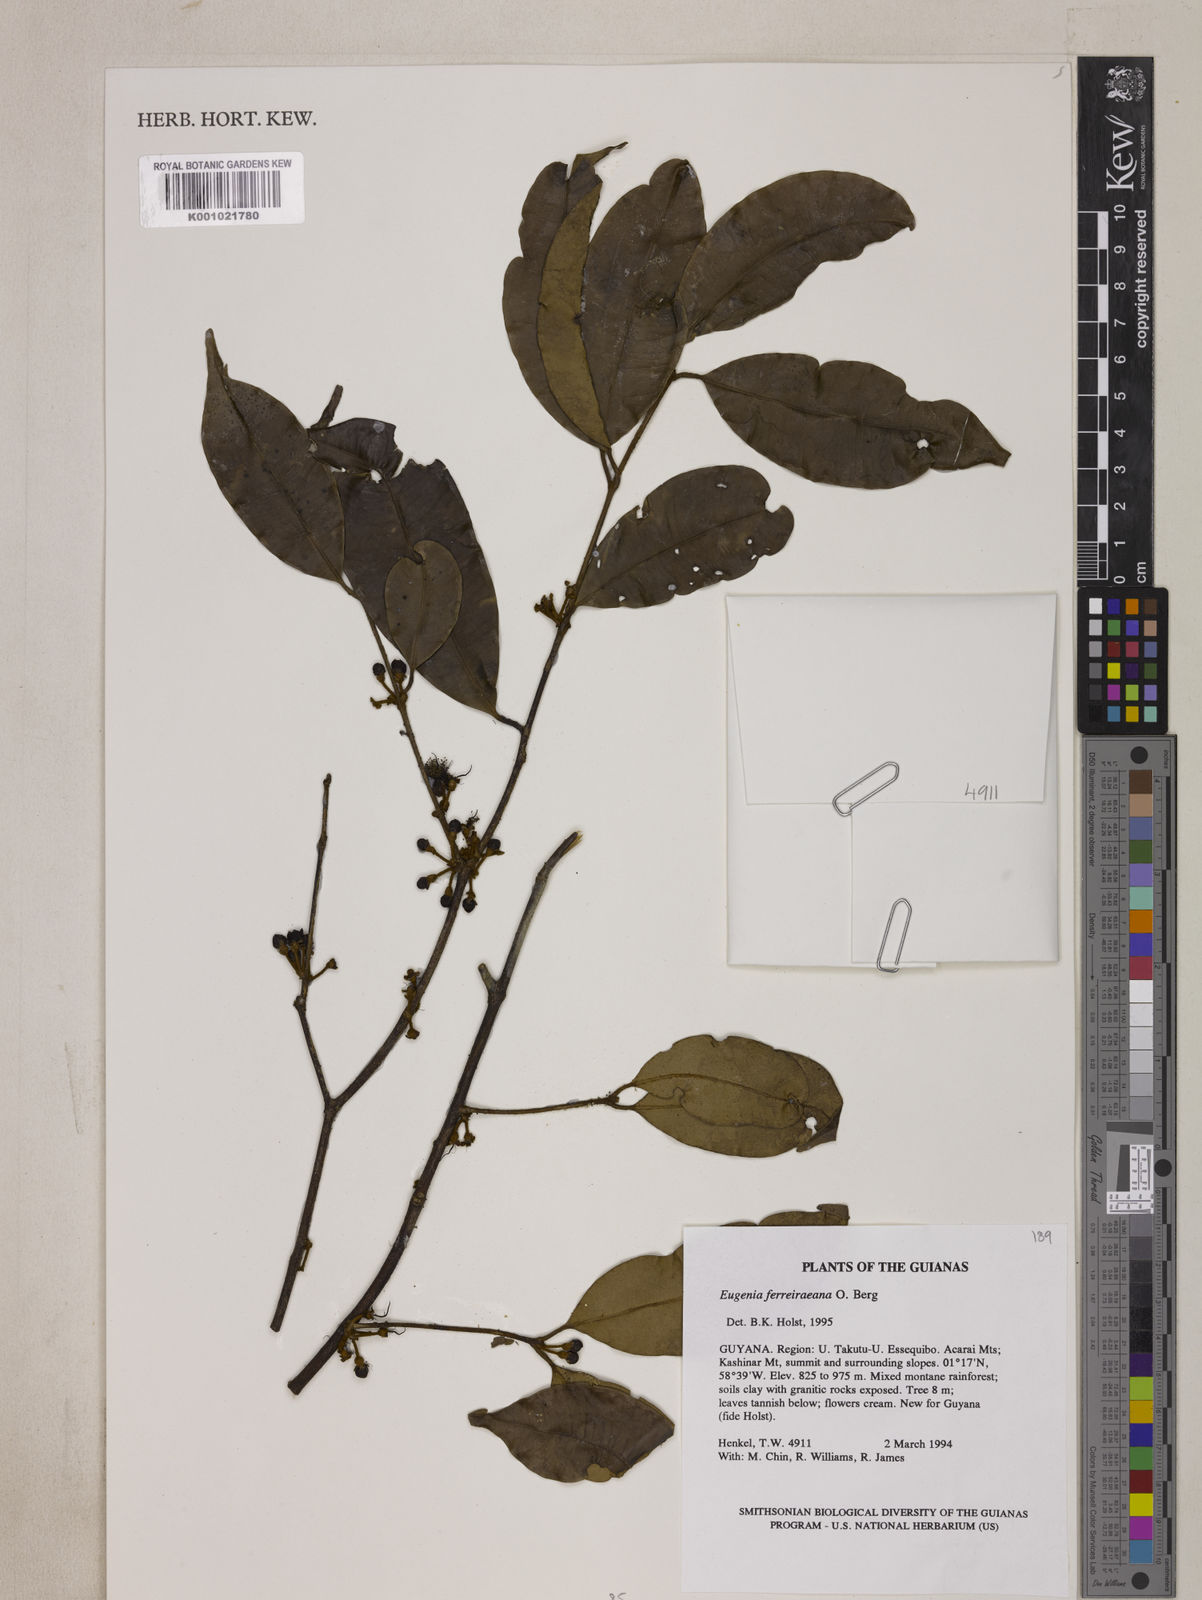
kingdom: Plantae
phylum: Tracheophyta
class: Magnoliopsida
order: Myrtales
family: Myrtaceae
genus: Eugenia
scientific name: Eugenia ferreiraeana
